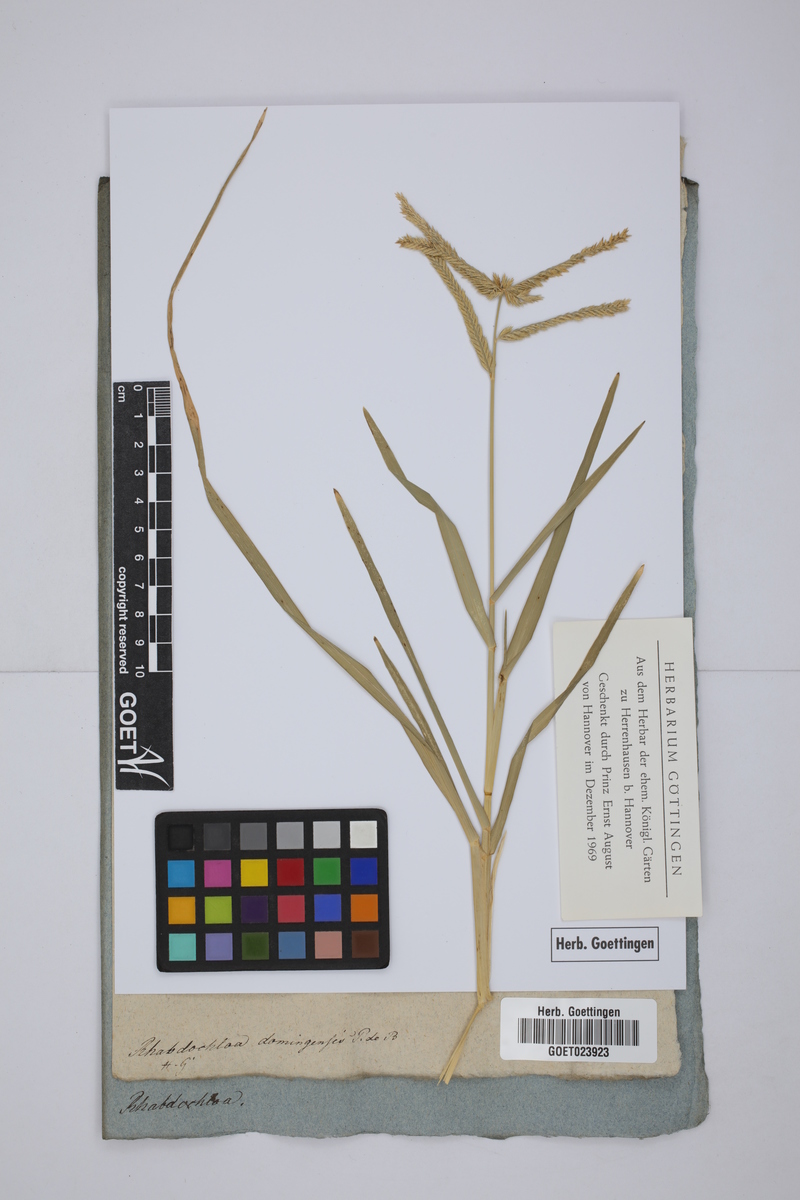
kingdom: Plantae
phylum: Tracheophyta
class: Liliopsida
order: Poales
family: Poaceae
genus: Leptochloa
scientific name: Leptochloa virgata
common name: Tropical sprangletop
